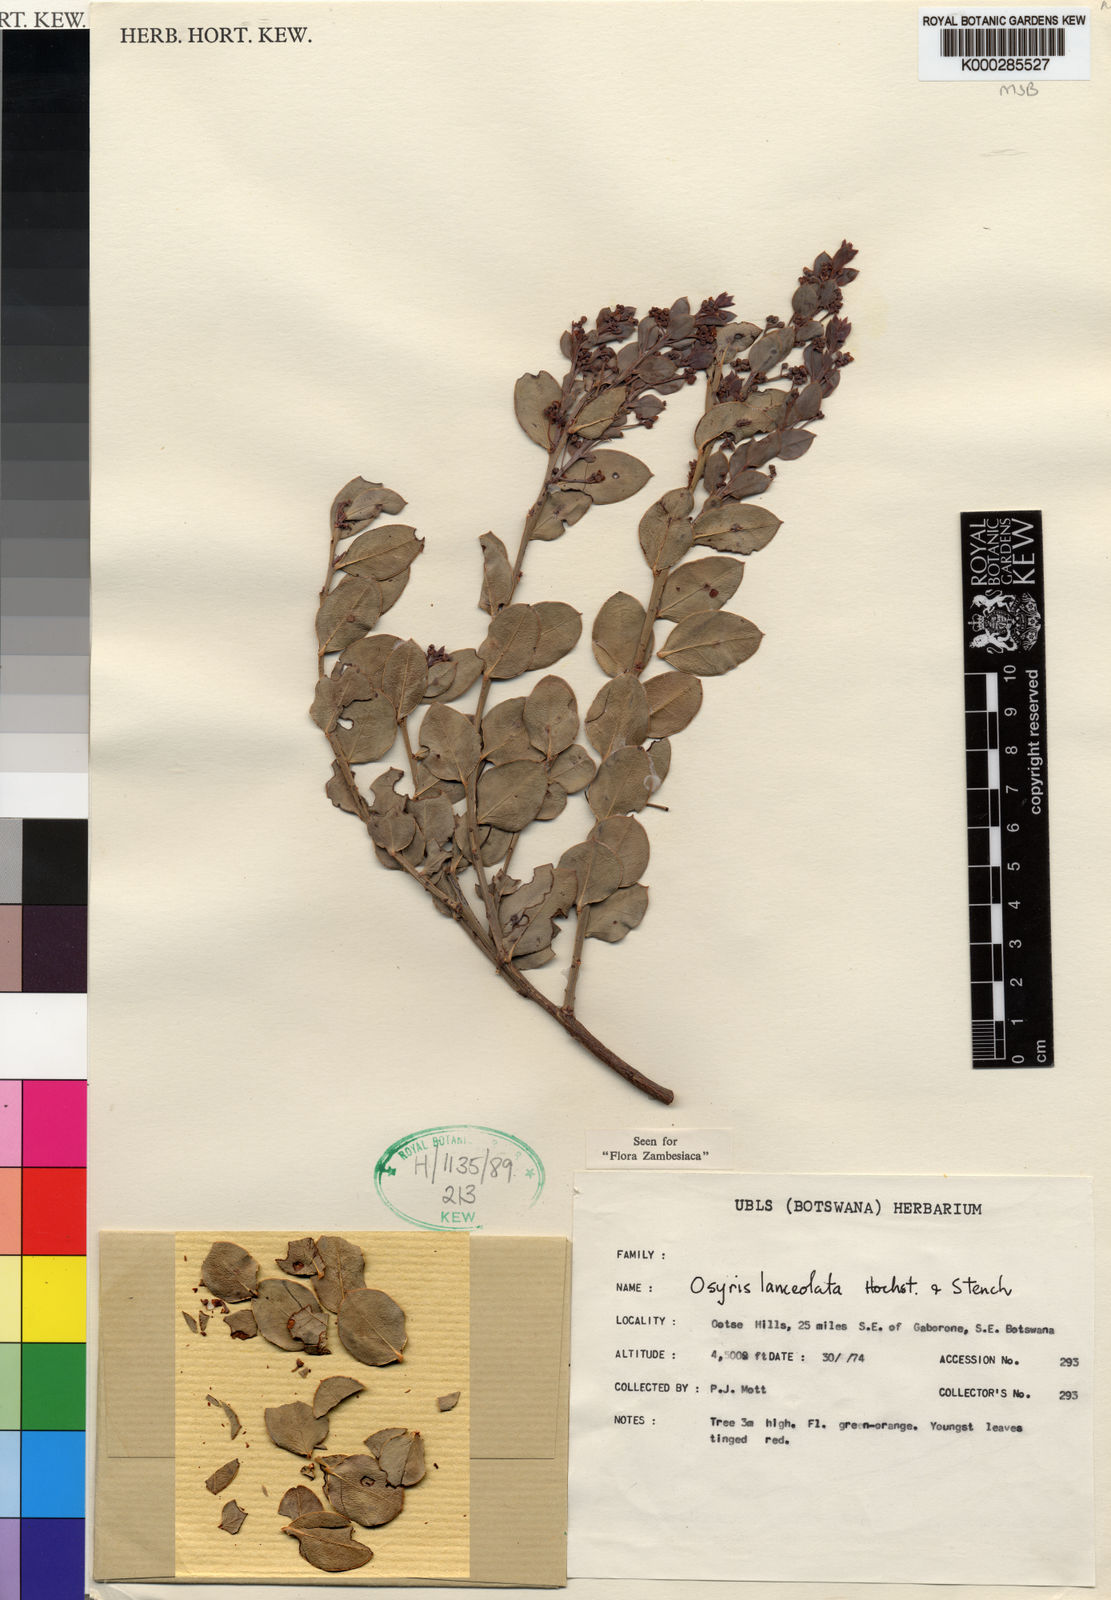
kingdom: Plantae
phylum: Tracheophyta
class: Magnoliopsida
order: Santalales
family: Santalaceae
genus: Osyris
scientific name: Osyris
